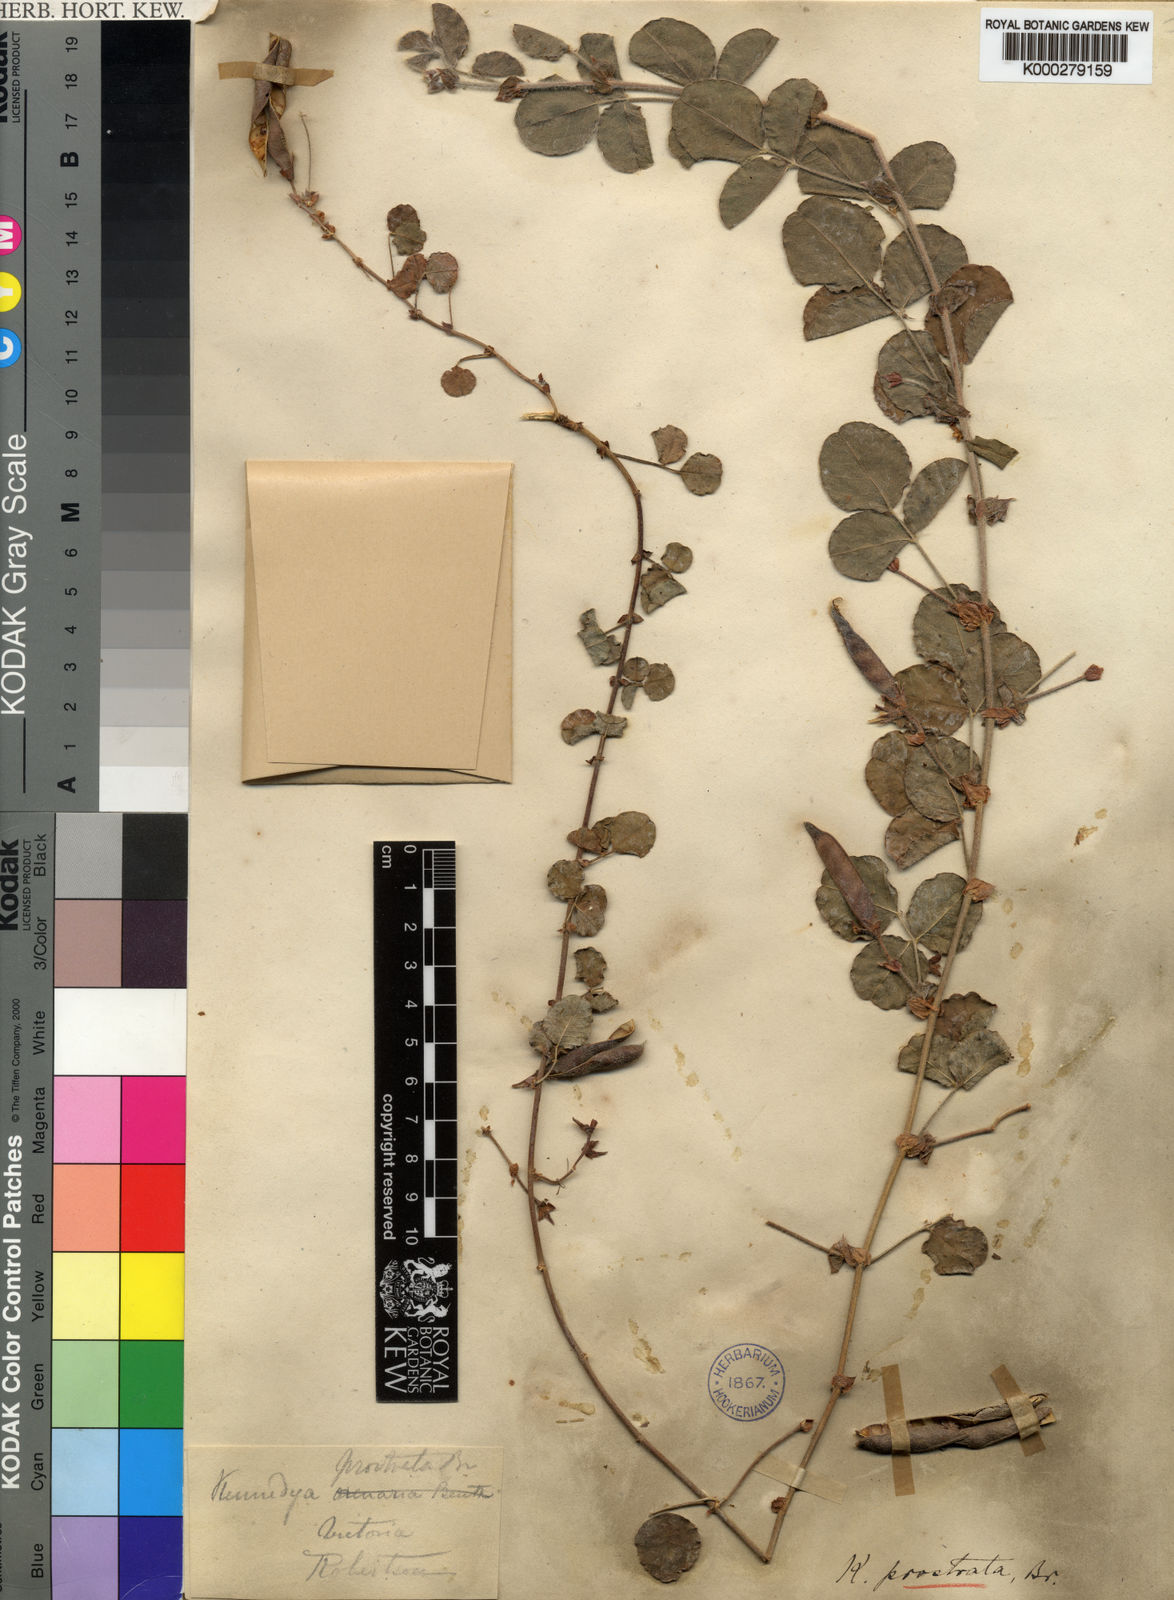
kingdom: Plantae
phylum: Tracheophyta
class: Magnoliopsida
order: Fabales
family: Fabaceae
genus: Kennedia
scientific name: Kennedia prostrata
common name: Running-postman
